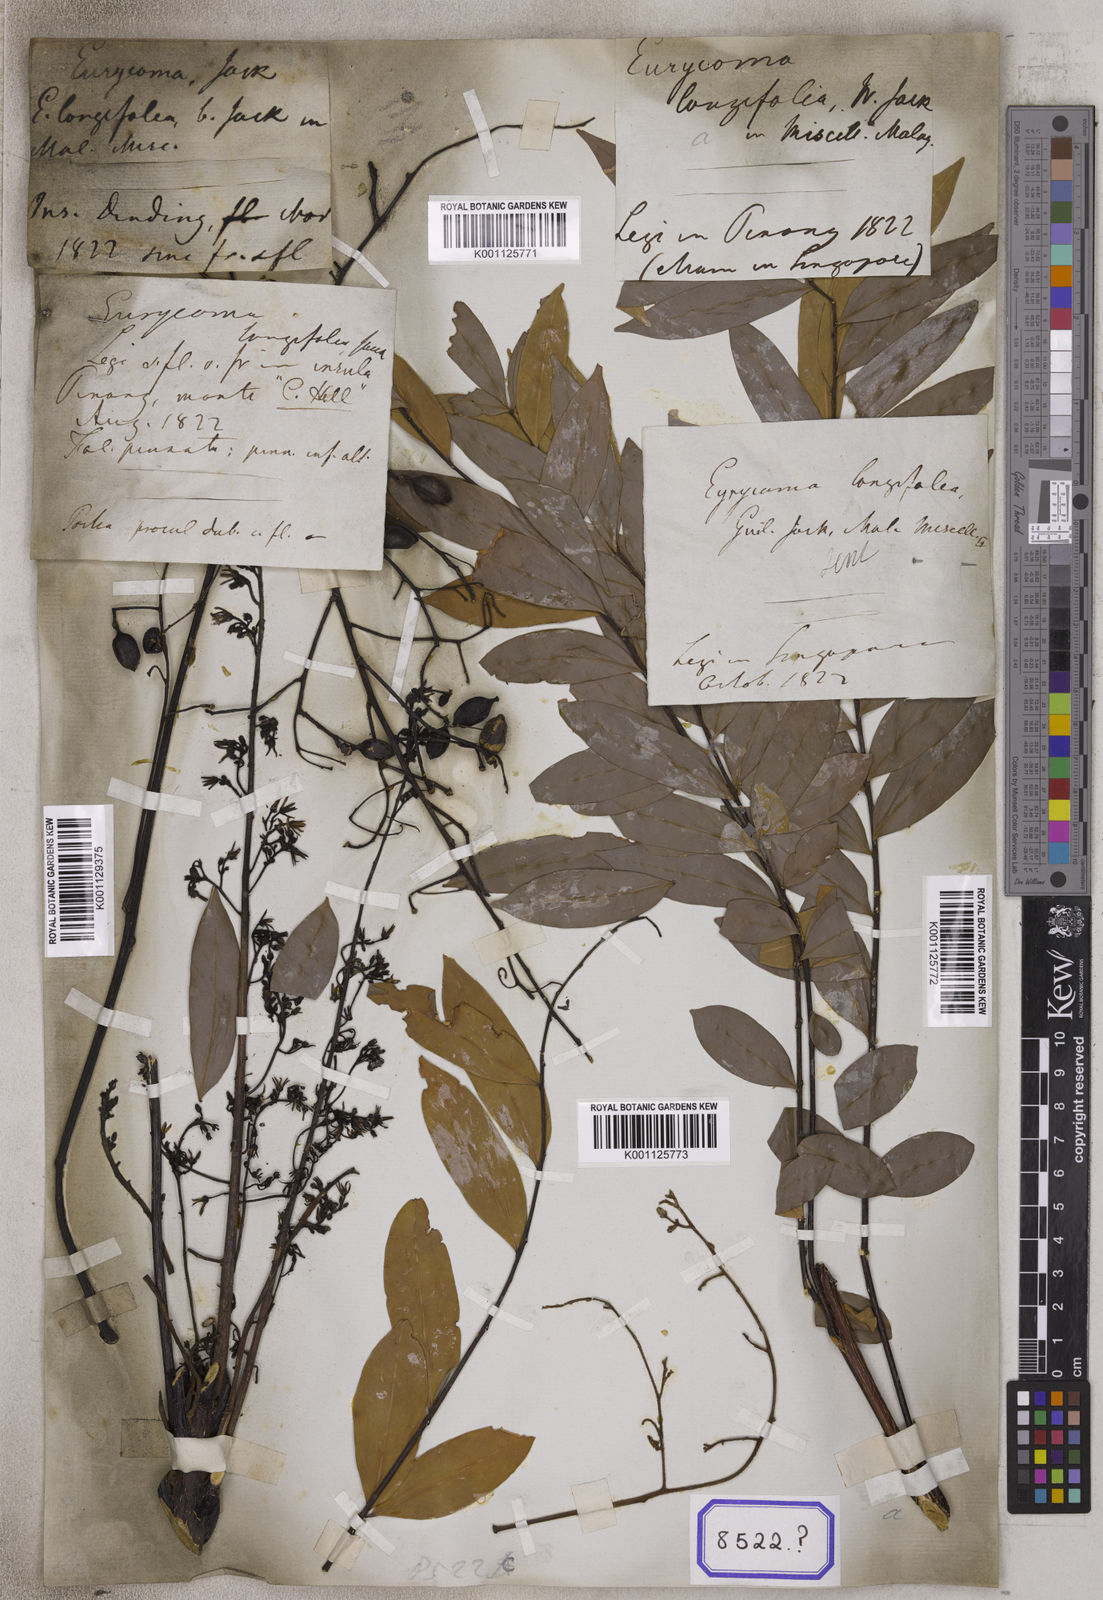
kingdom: Plantae
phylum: Tracheophyta
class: Magnoliopsida
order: Sapindales
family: Simaroubaceae
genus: Eurycoma
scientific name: Eurycoma longifolia
